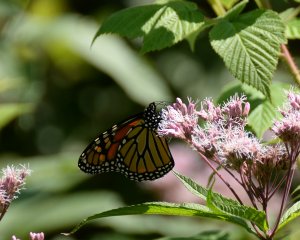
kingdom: Animalia
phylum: Arthropoda
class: Insecta
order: Lepidoptera
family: Nymphalidae
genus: Danaus
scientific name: Danaus plexippus
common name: Monarch
